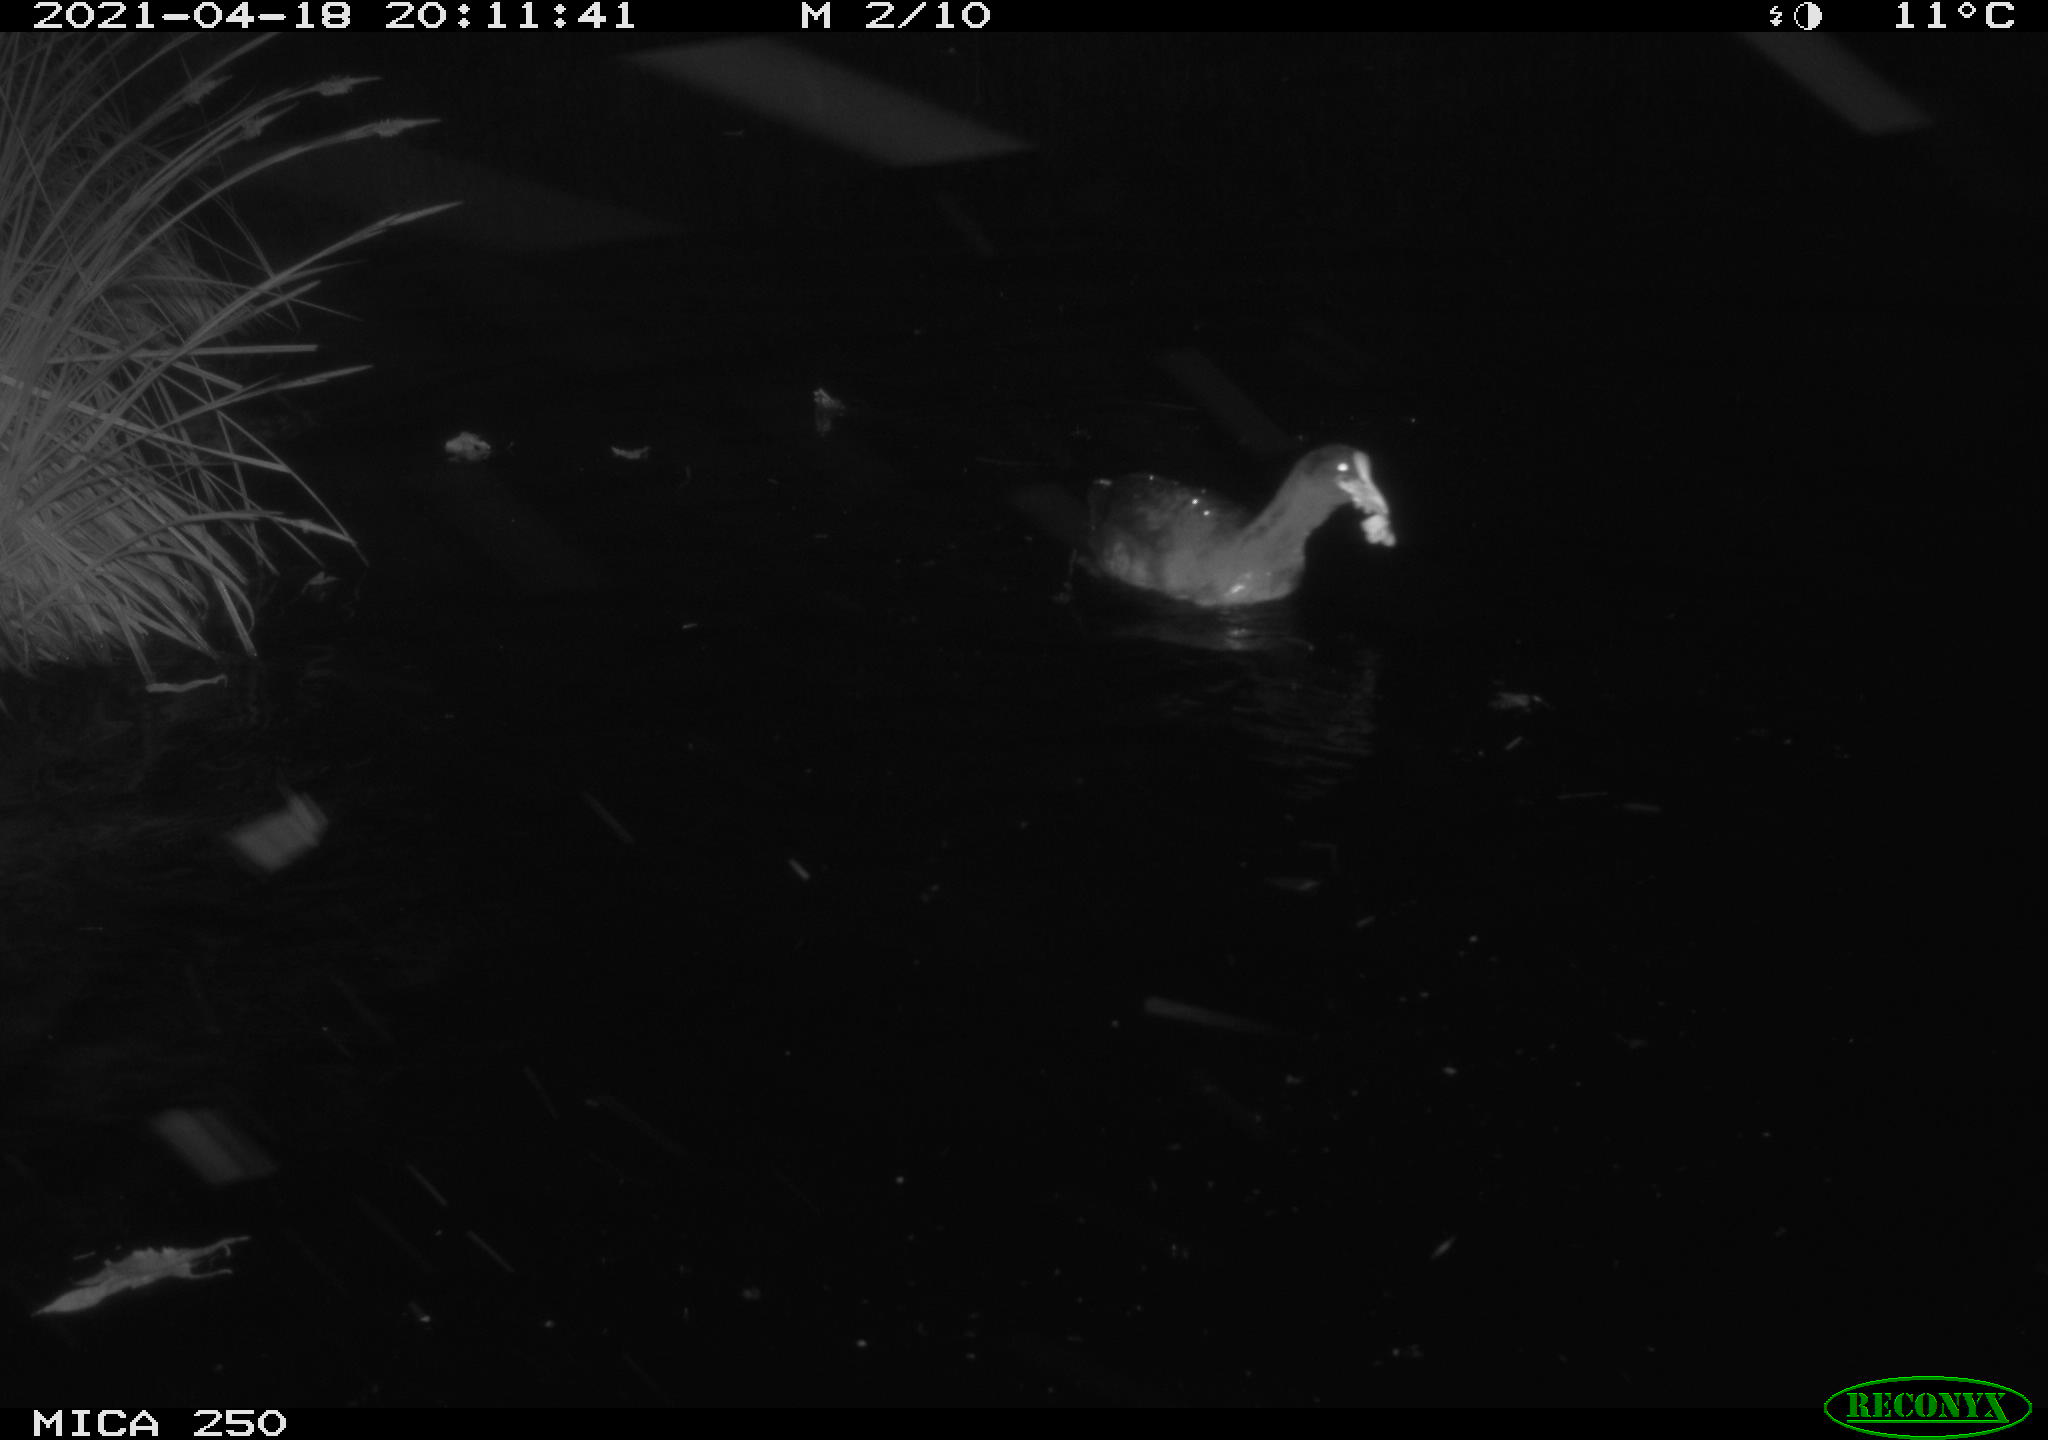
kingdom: Animalia
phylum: Chordata
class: Aves
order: Anseriformes
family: Anatidae
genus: Anas
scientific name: Anas platyrhynchos
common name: Mallard
